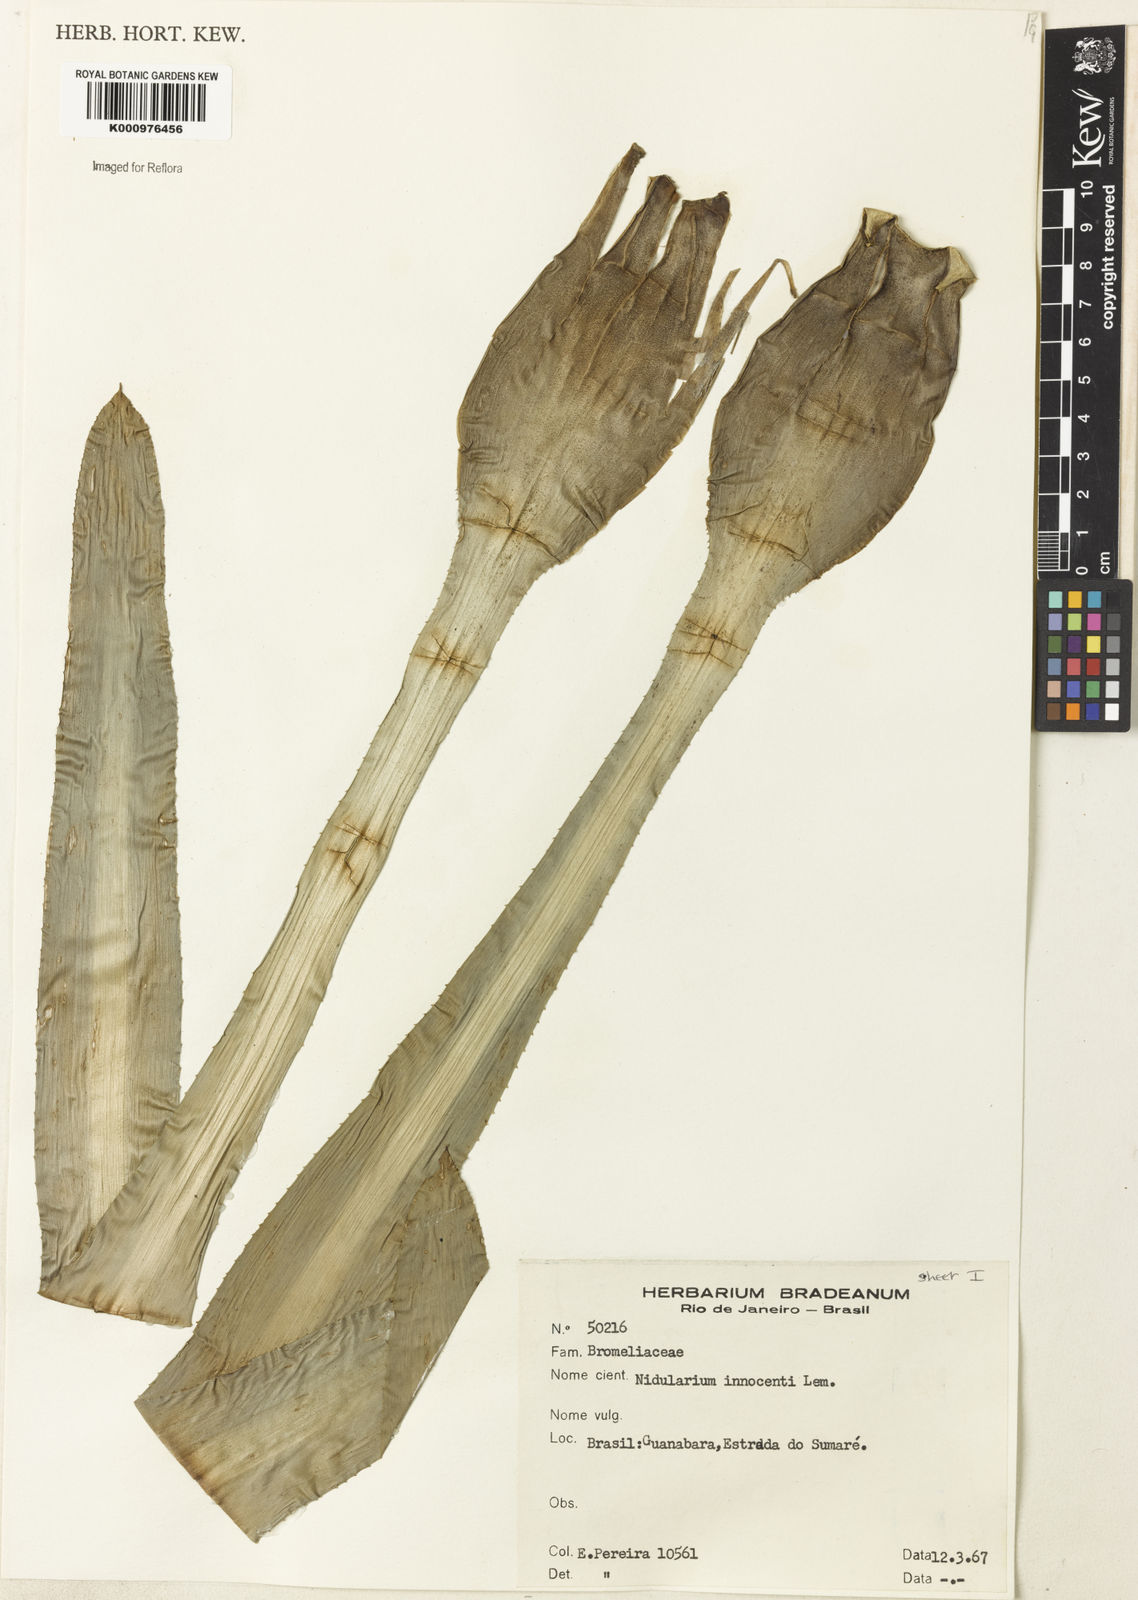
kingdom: Plantae
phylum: Tracheophyta
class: Liliopsida
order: Poales
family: Bromeliaceae
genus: Nidularium
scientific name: Nidularium innocentii
